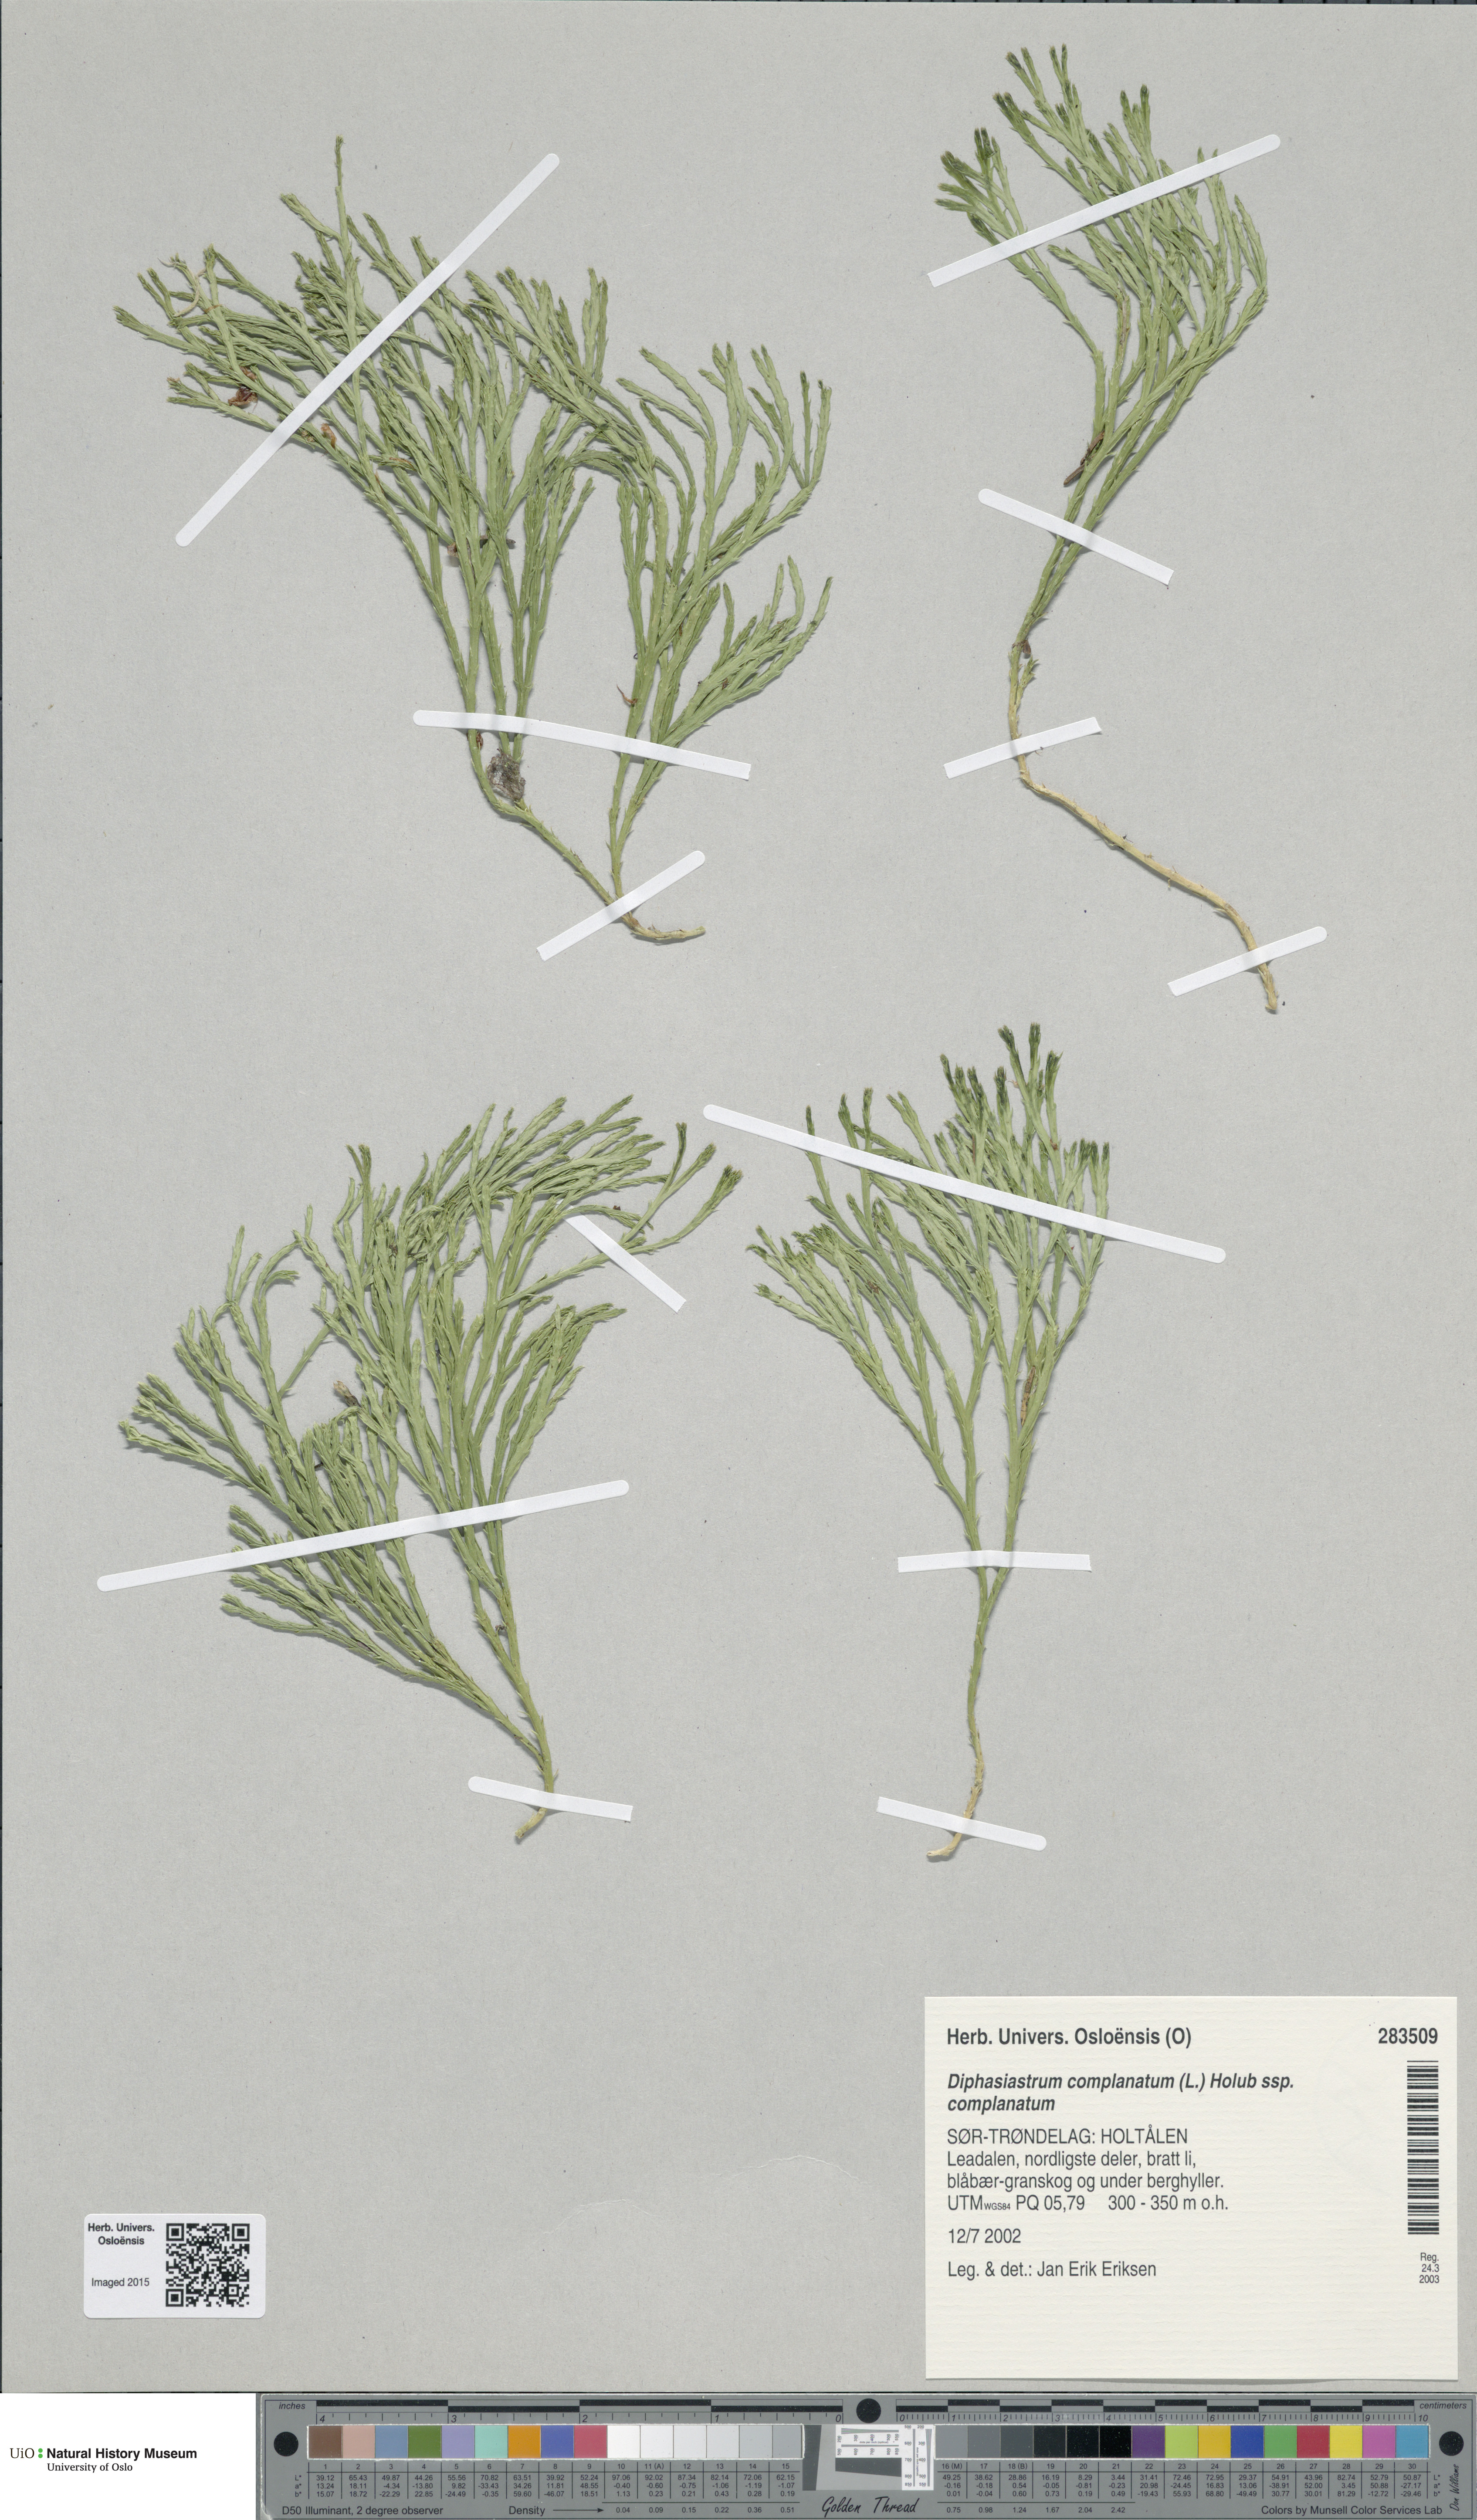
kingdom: Plantae
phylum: Tracheophyta
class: Lycopodiopsida
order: Lycopodiales
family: Lycopodiaceae
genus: Diphasiastrum
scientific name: Diphasiastrum complanatum
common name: Northern running-pine
